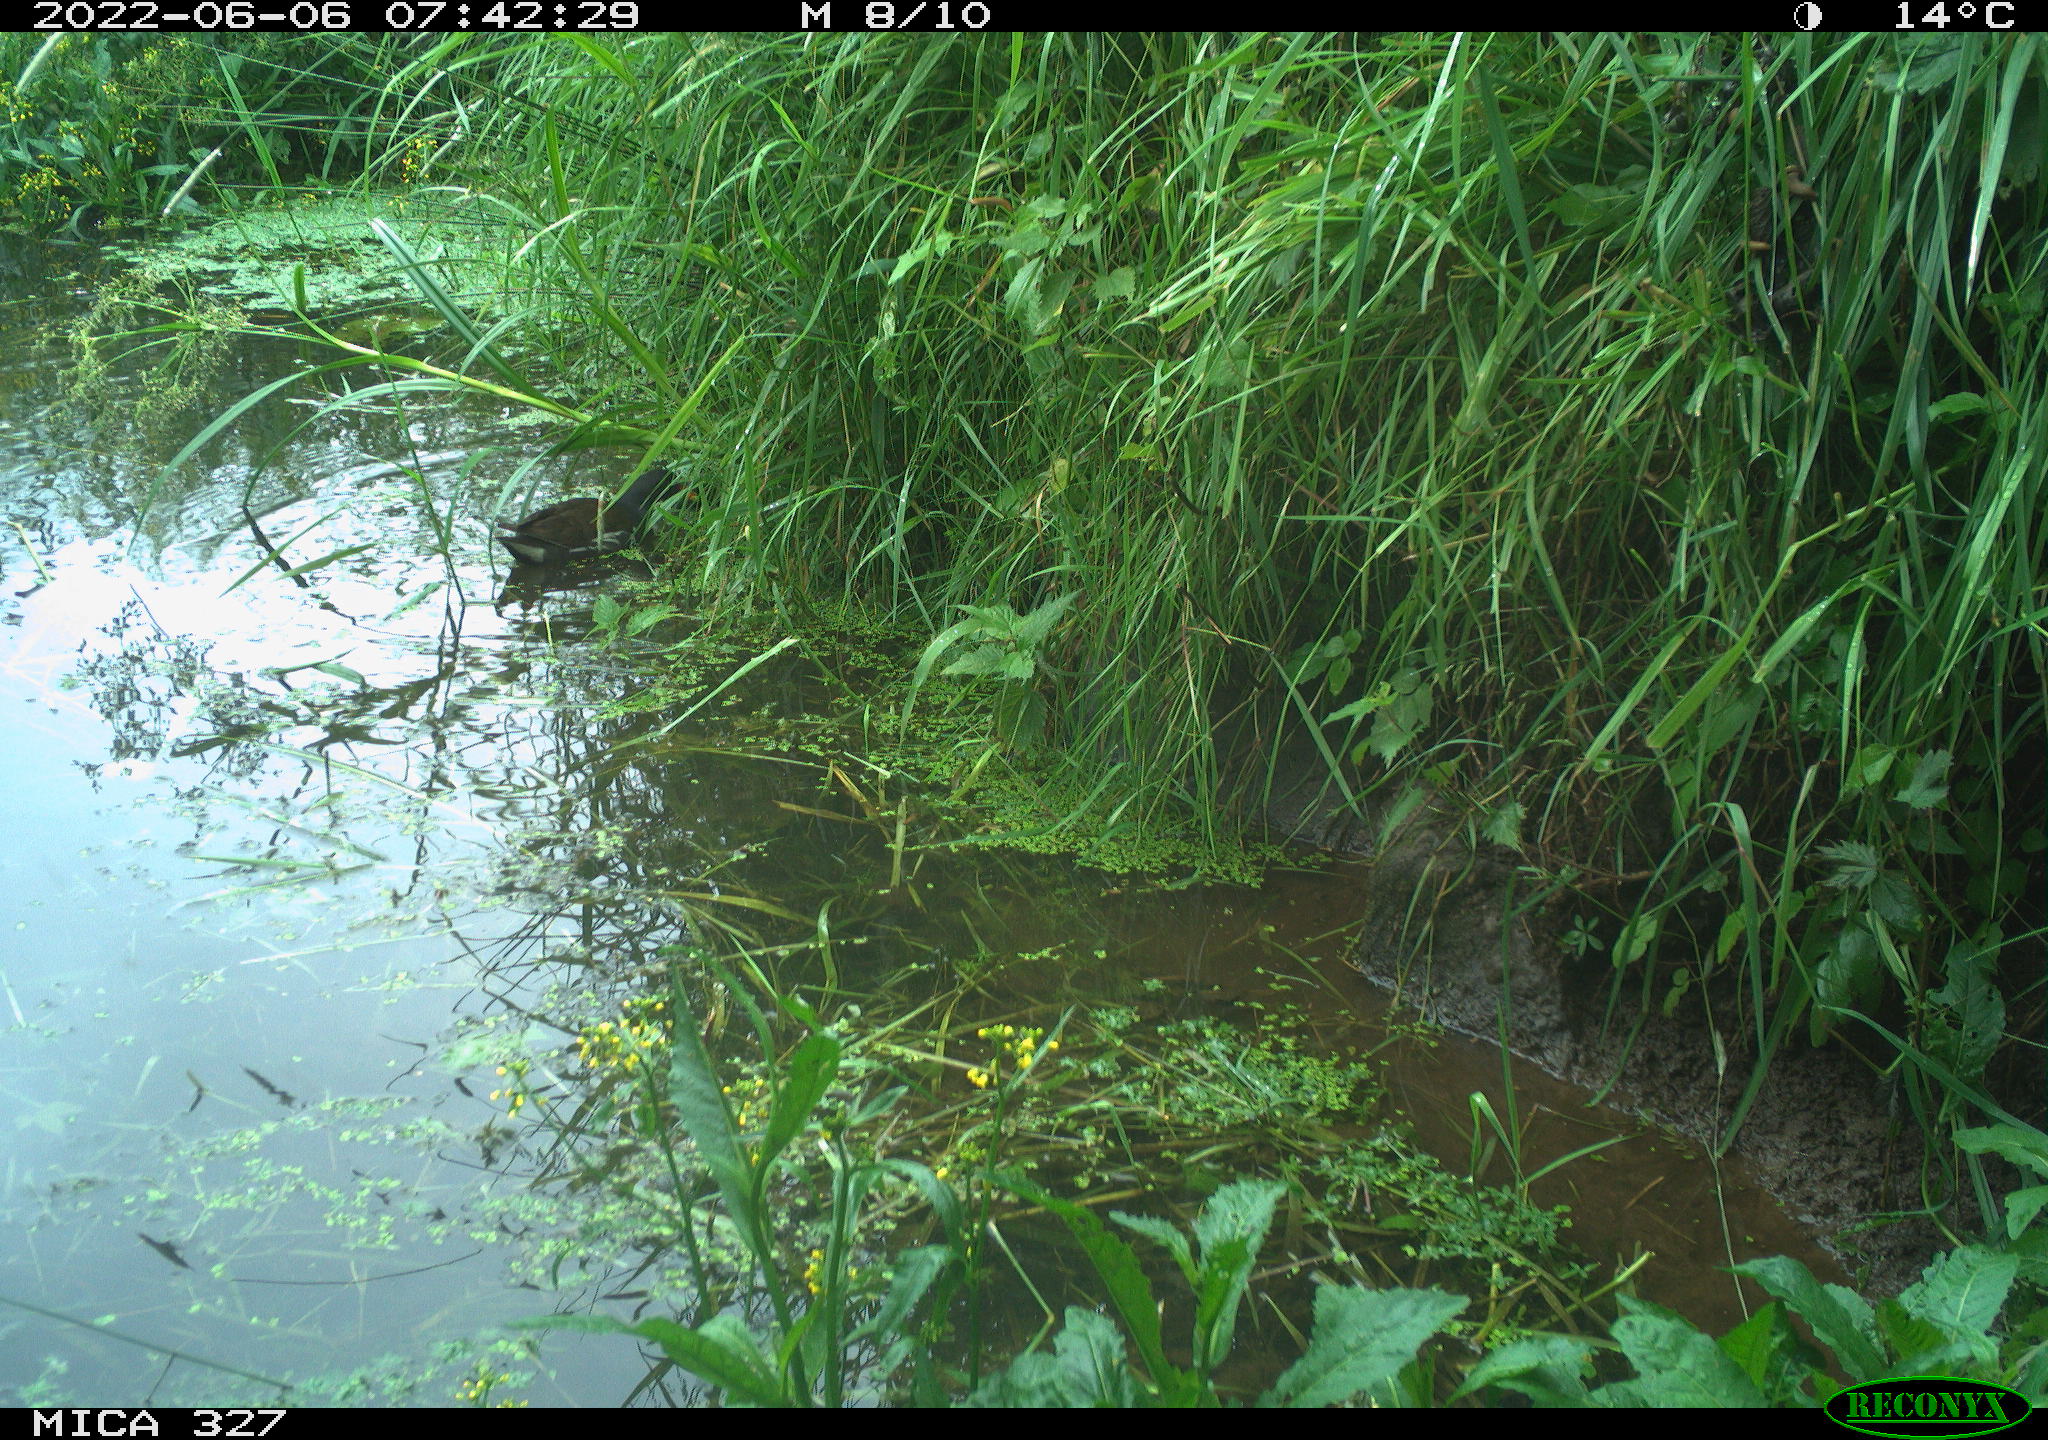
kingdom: Animalia
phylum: Chordata
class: Aves
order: Gruiformes
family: Rallidae
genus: Gallinula
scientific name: Gallinula chloropus
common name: Common moorhen
